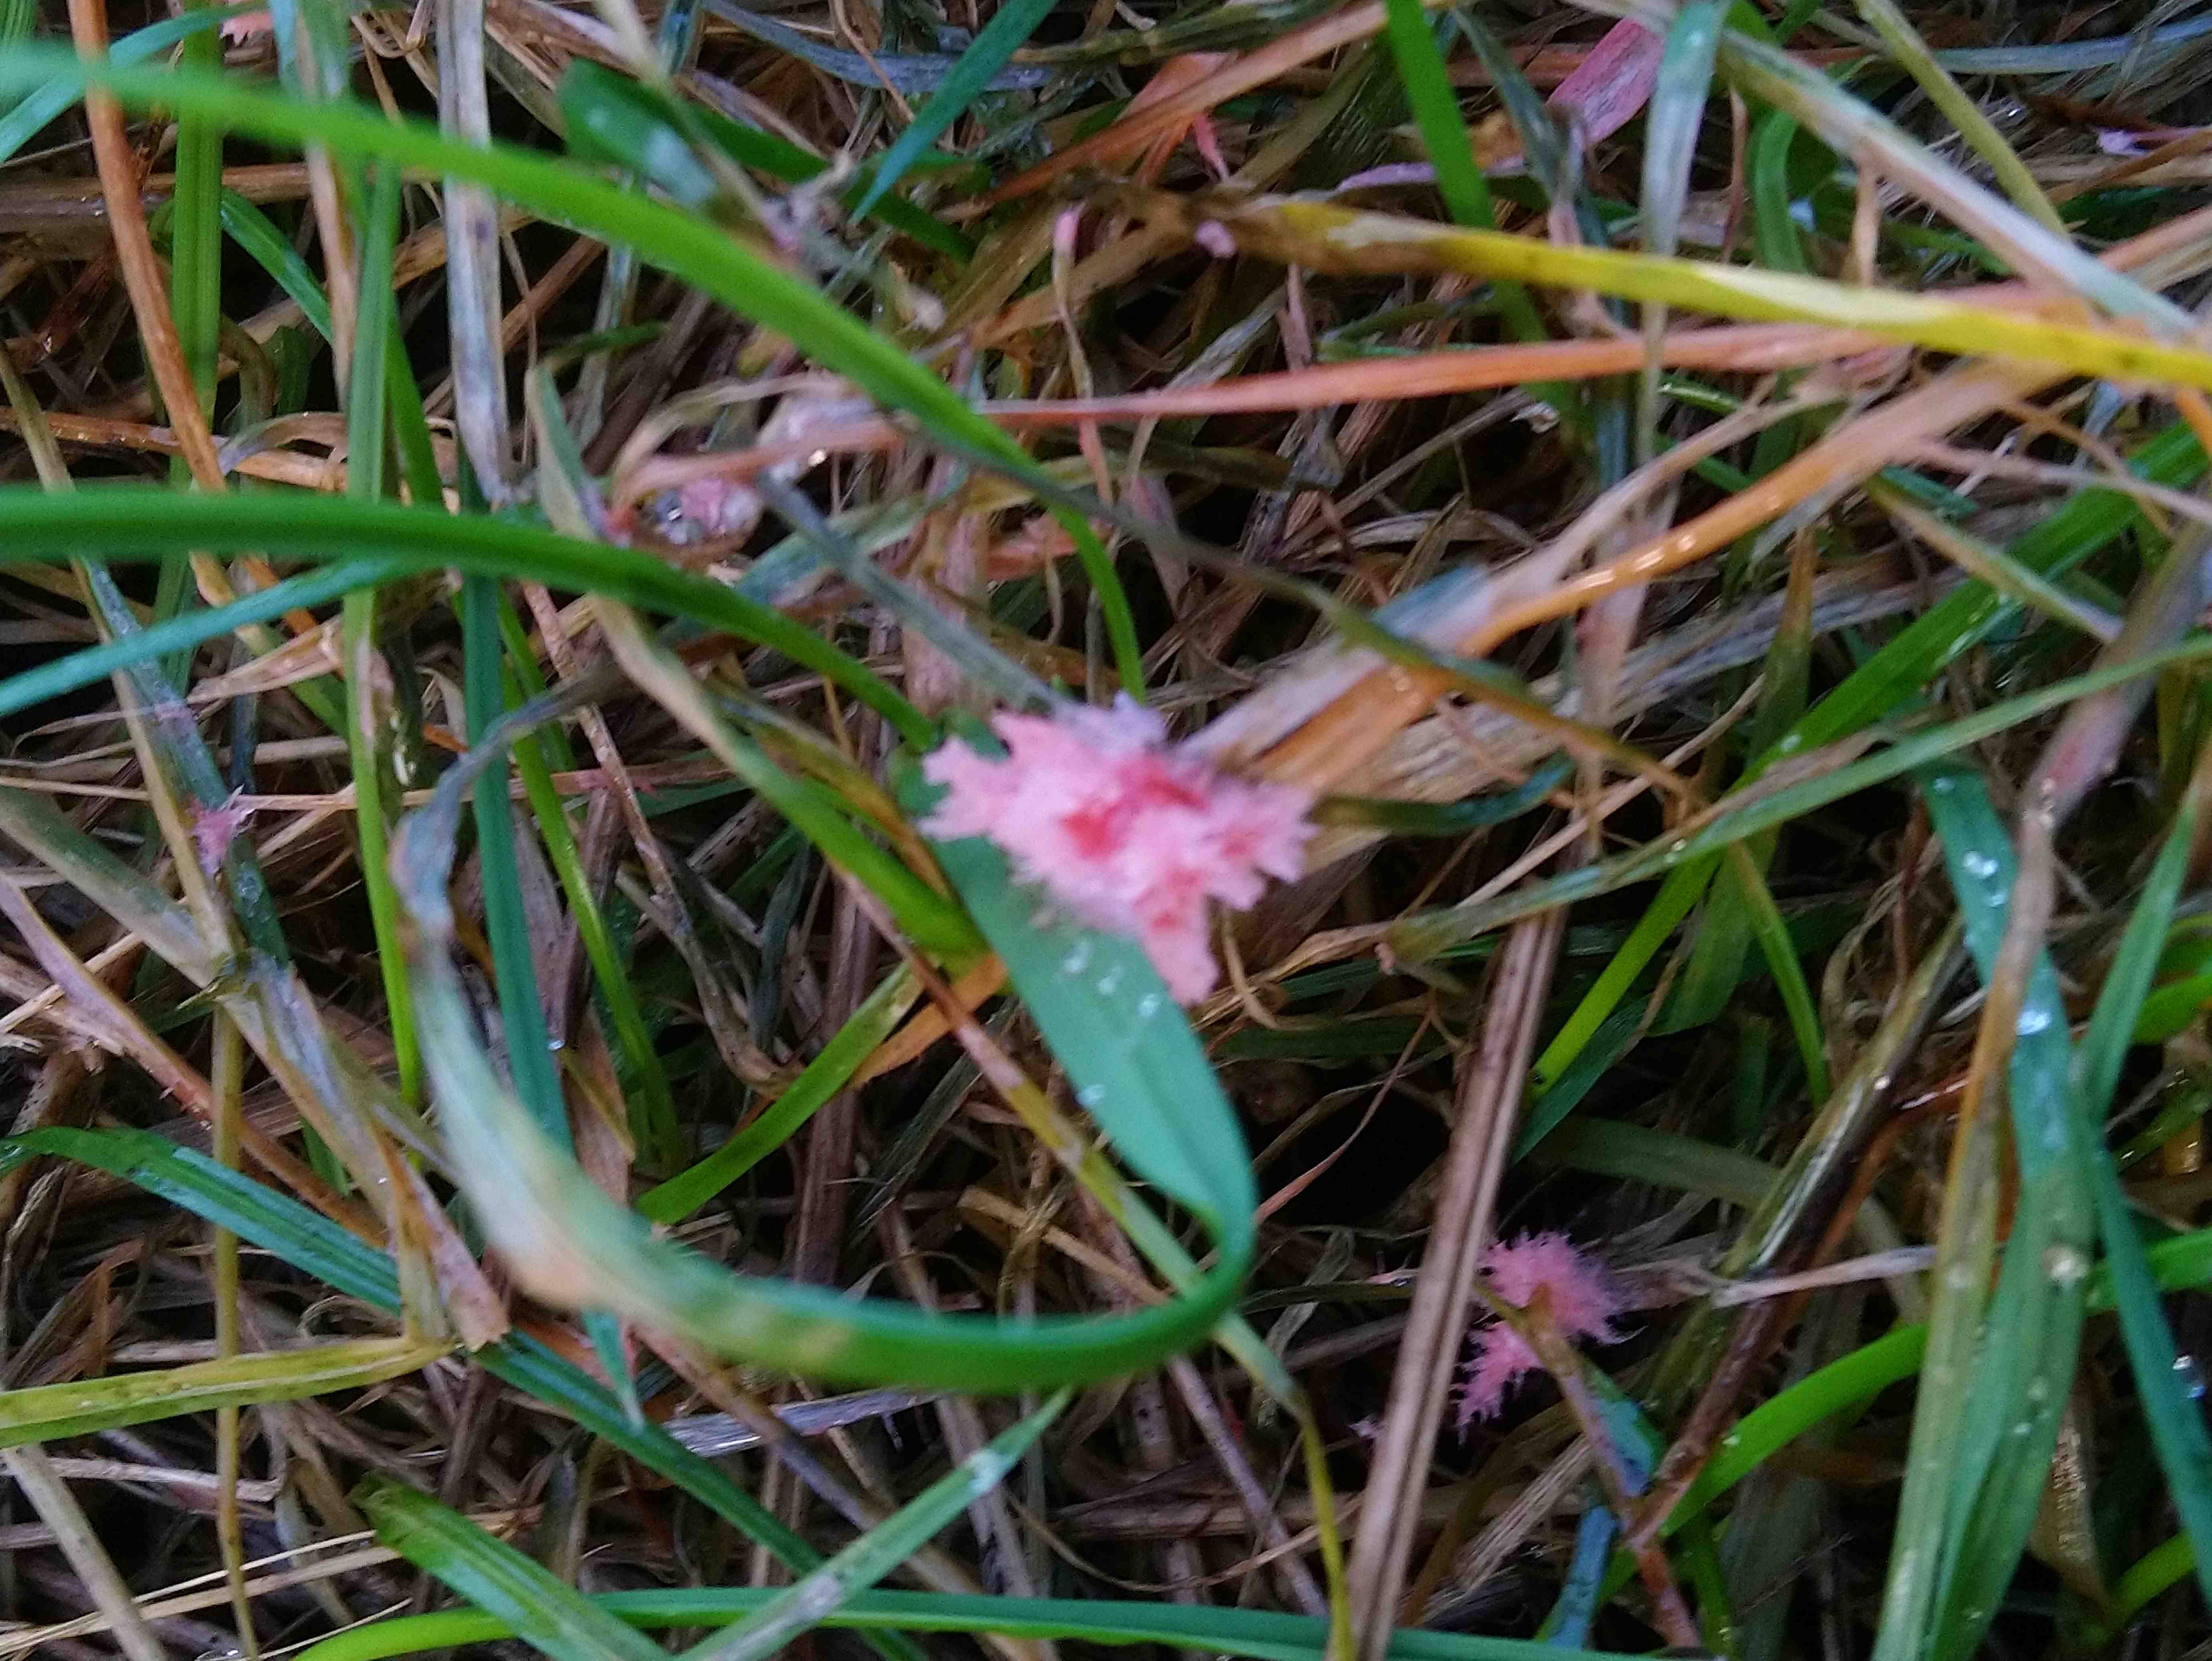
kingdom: Fungi
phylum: Basidiomycota
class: Agaricomycetes
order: Corticiales
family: Corticiaceae
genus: Laetisaria
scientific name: Laetisaria
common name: rødtråd
